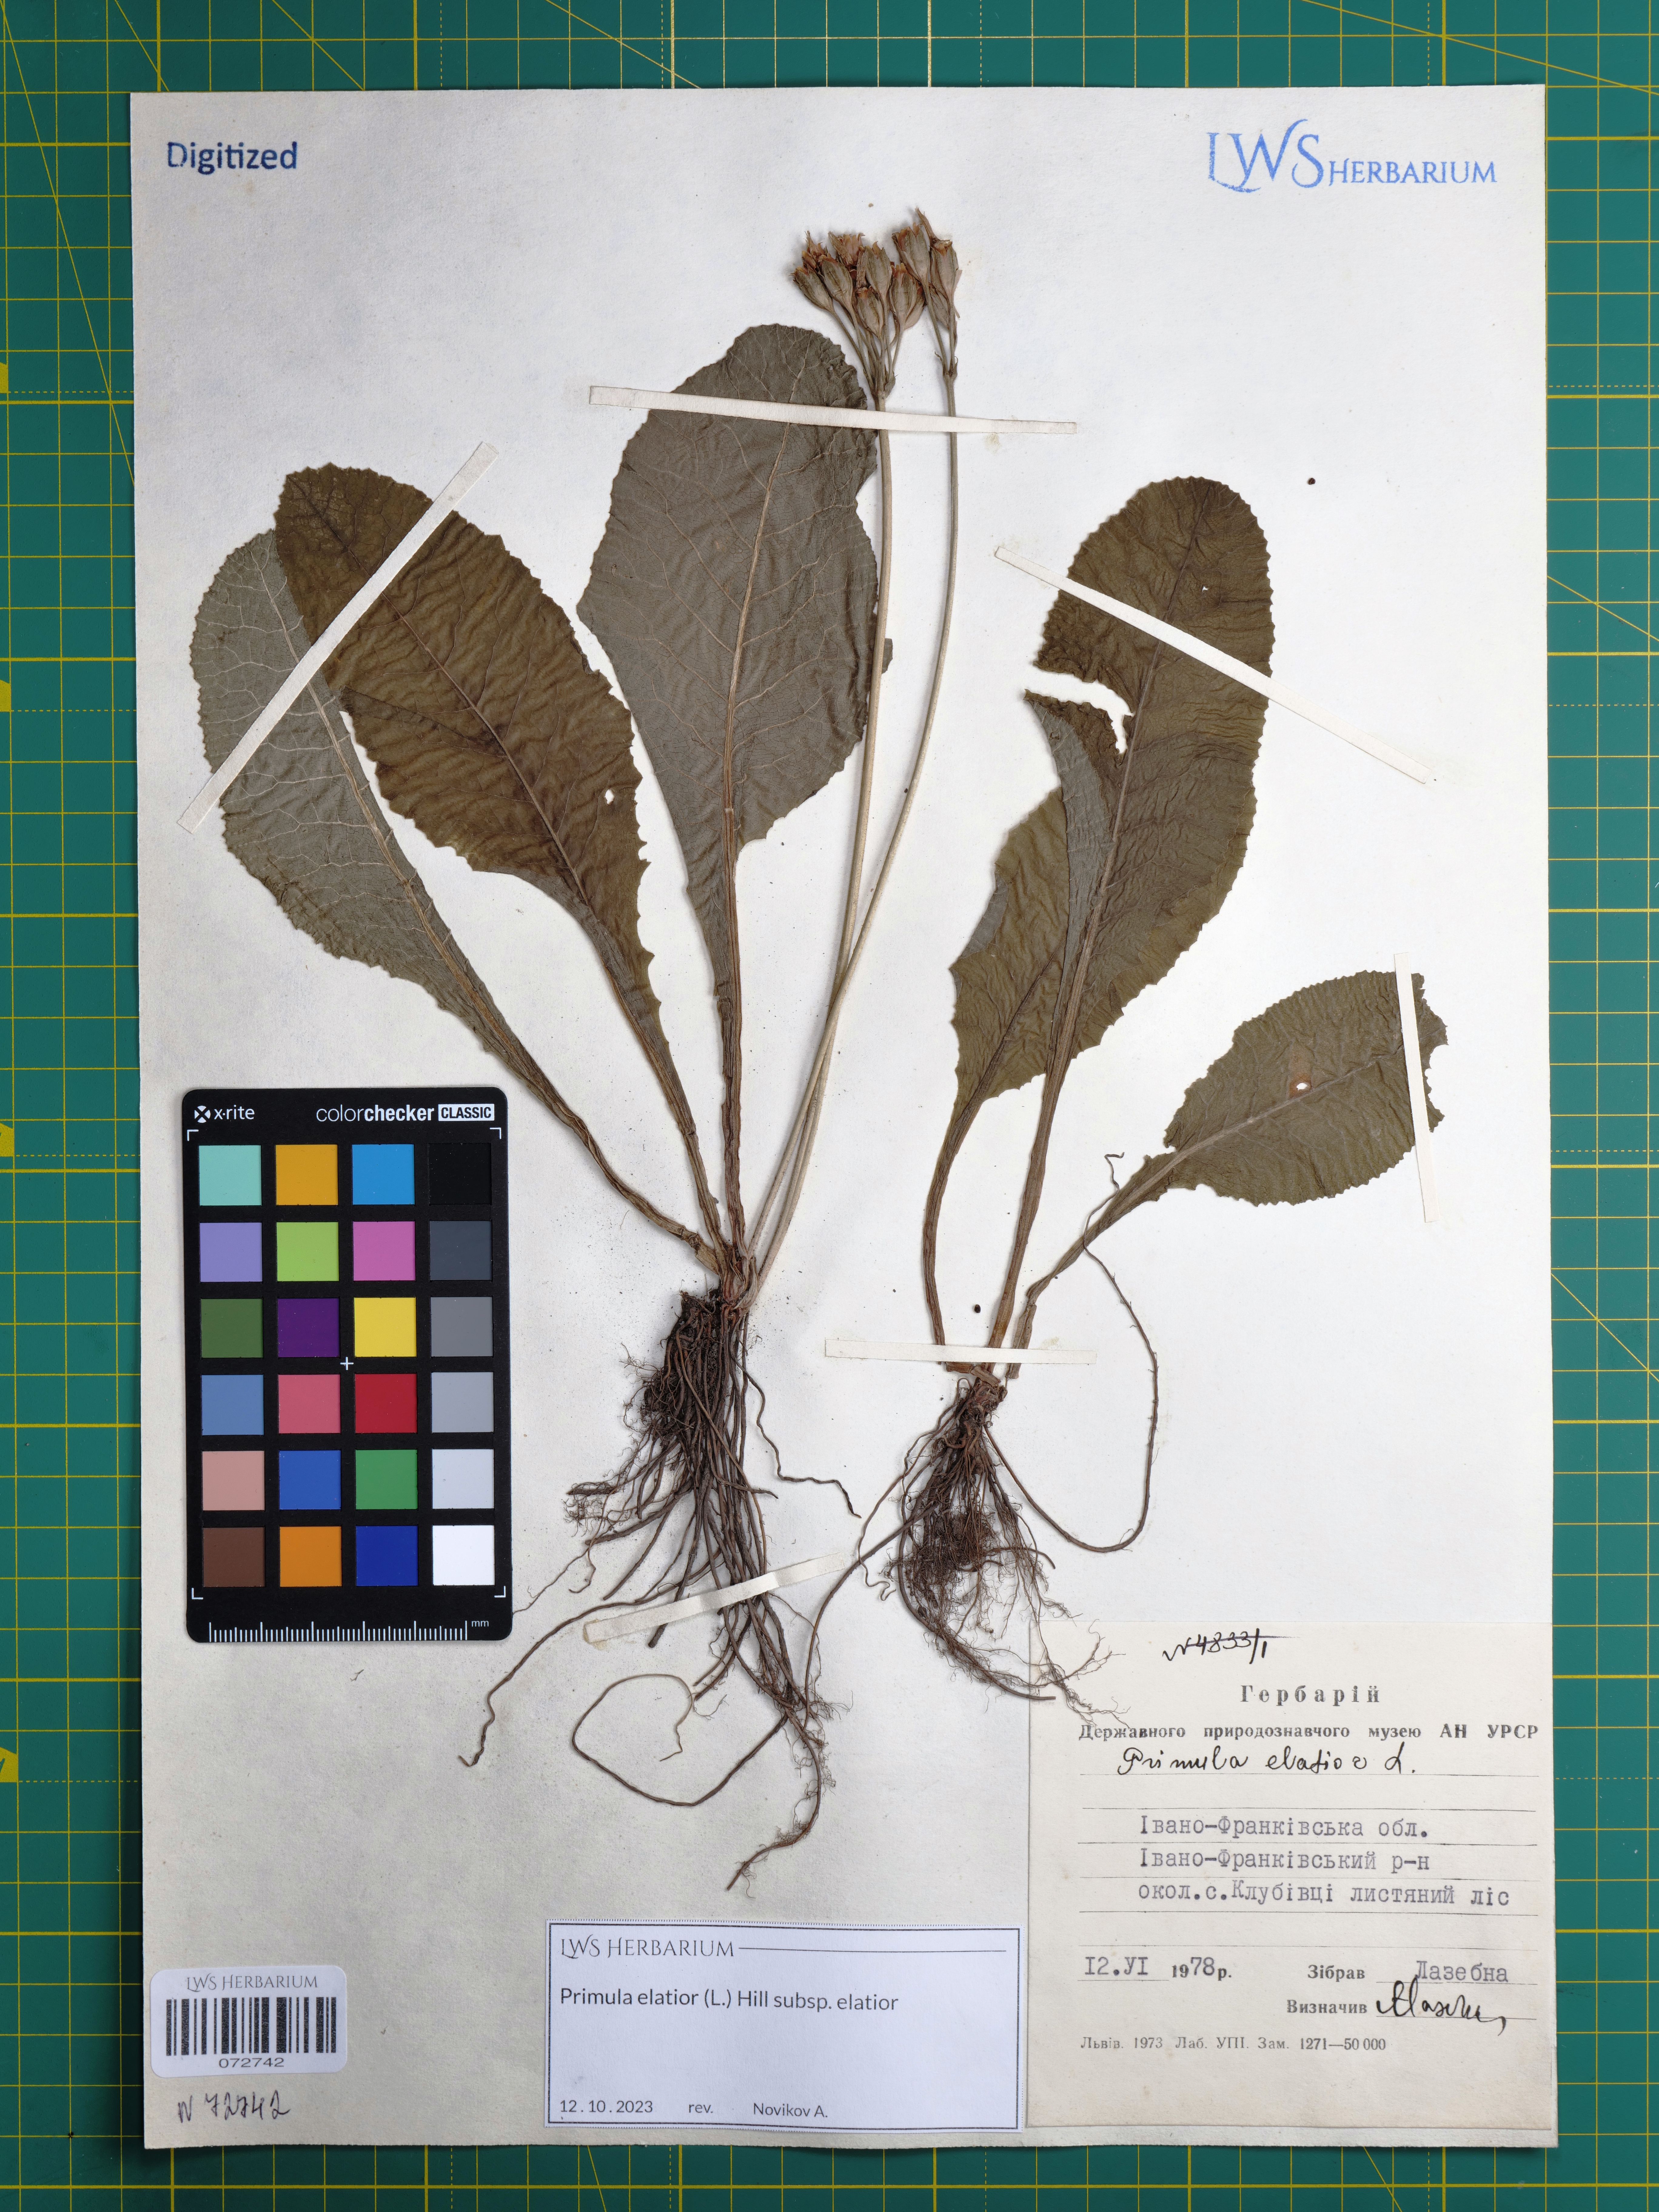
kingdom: Plantae
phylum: Tracheophyta
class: Magnoliopsida
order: Ericales
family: Primulaceae
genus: Primula
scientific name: Primula elatior
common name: Oxlip
